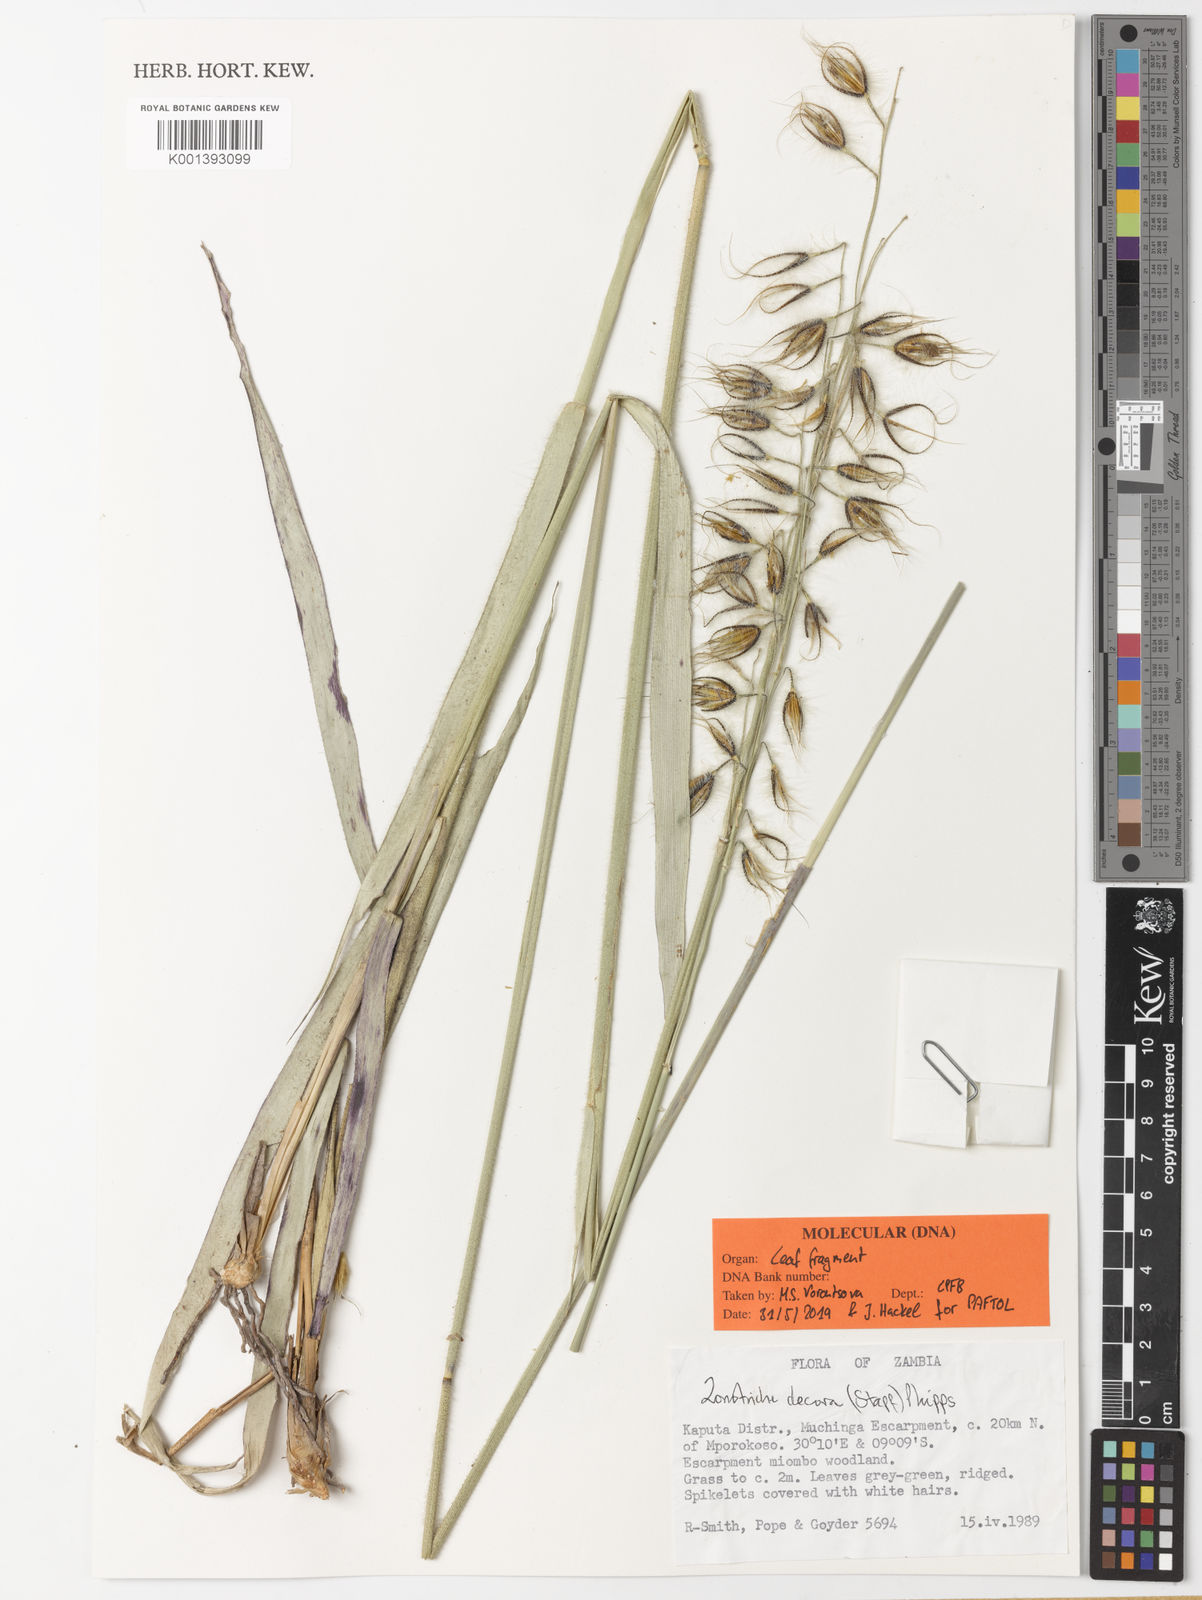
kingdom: Plantae
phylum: Tracheophyta
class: Liliopsida
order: Poales
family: Poaceae
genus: Zonotriche
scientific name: Zonotriche decora
